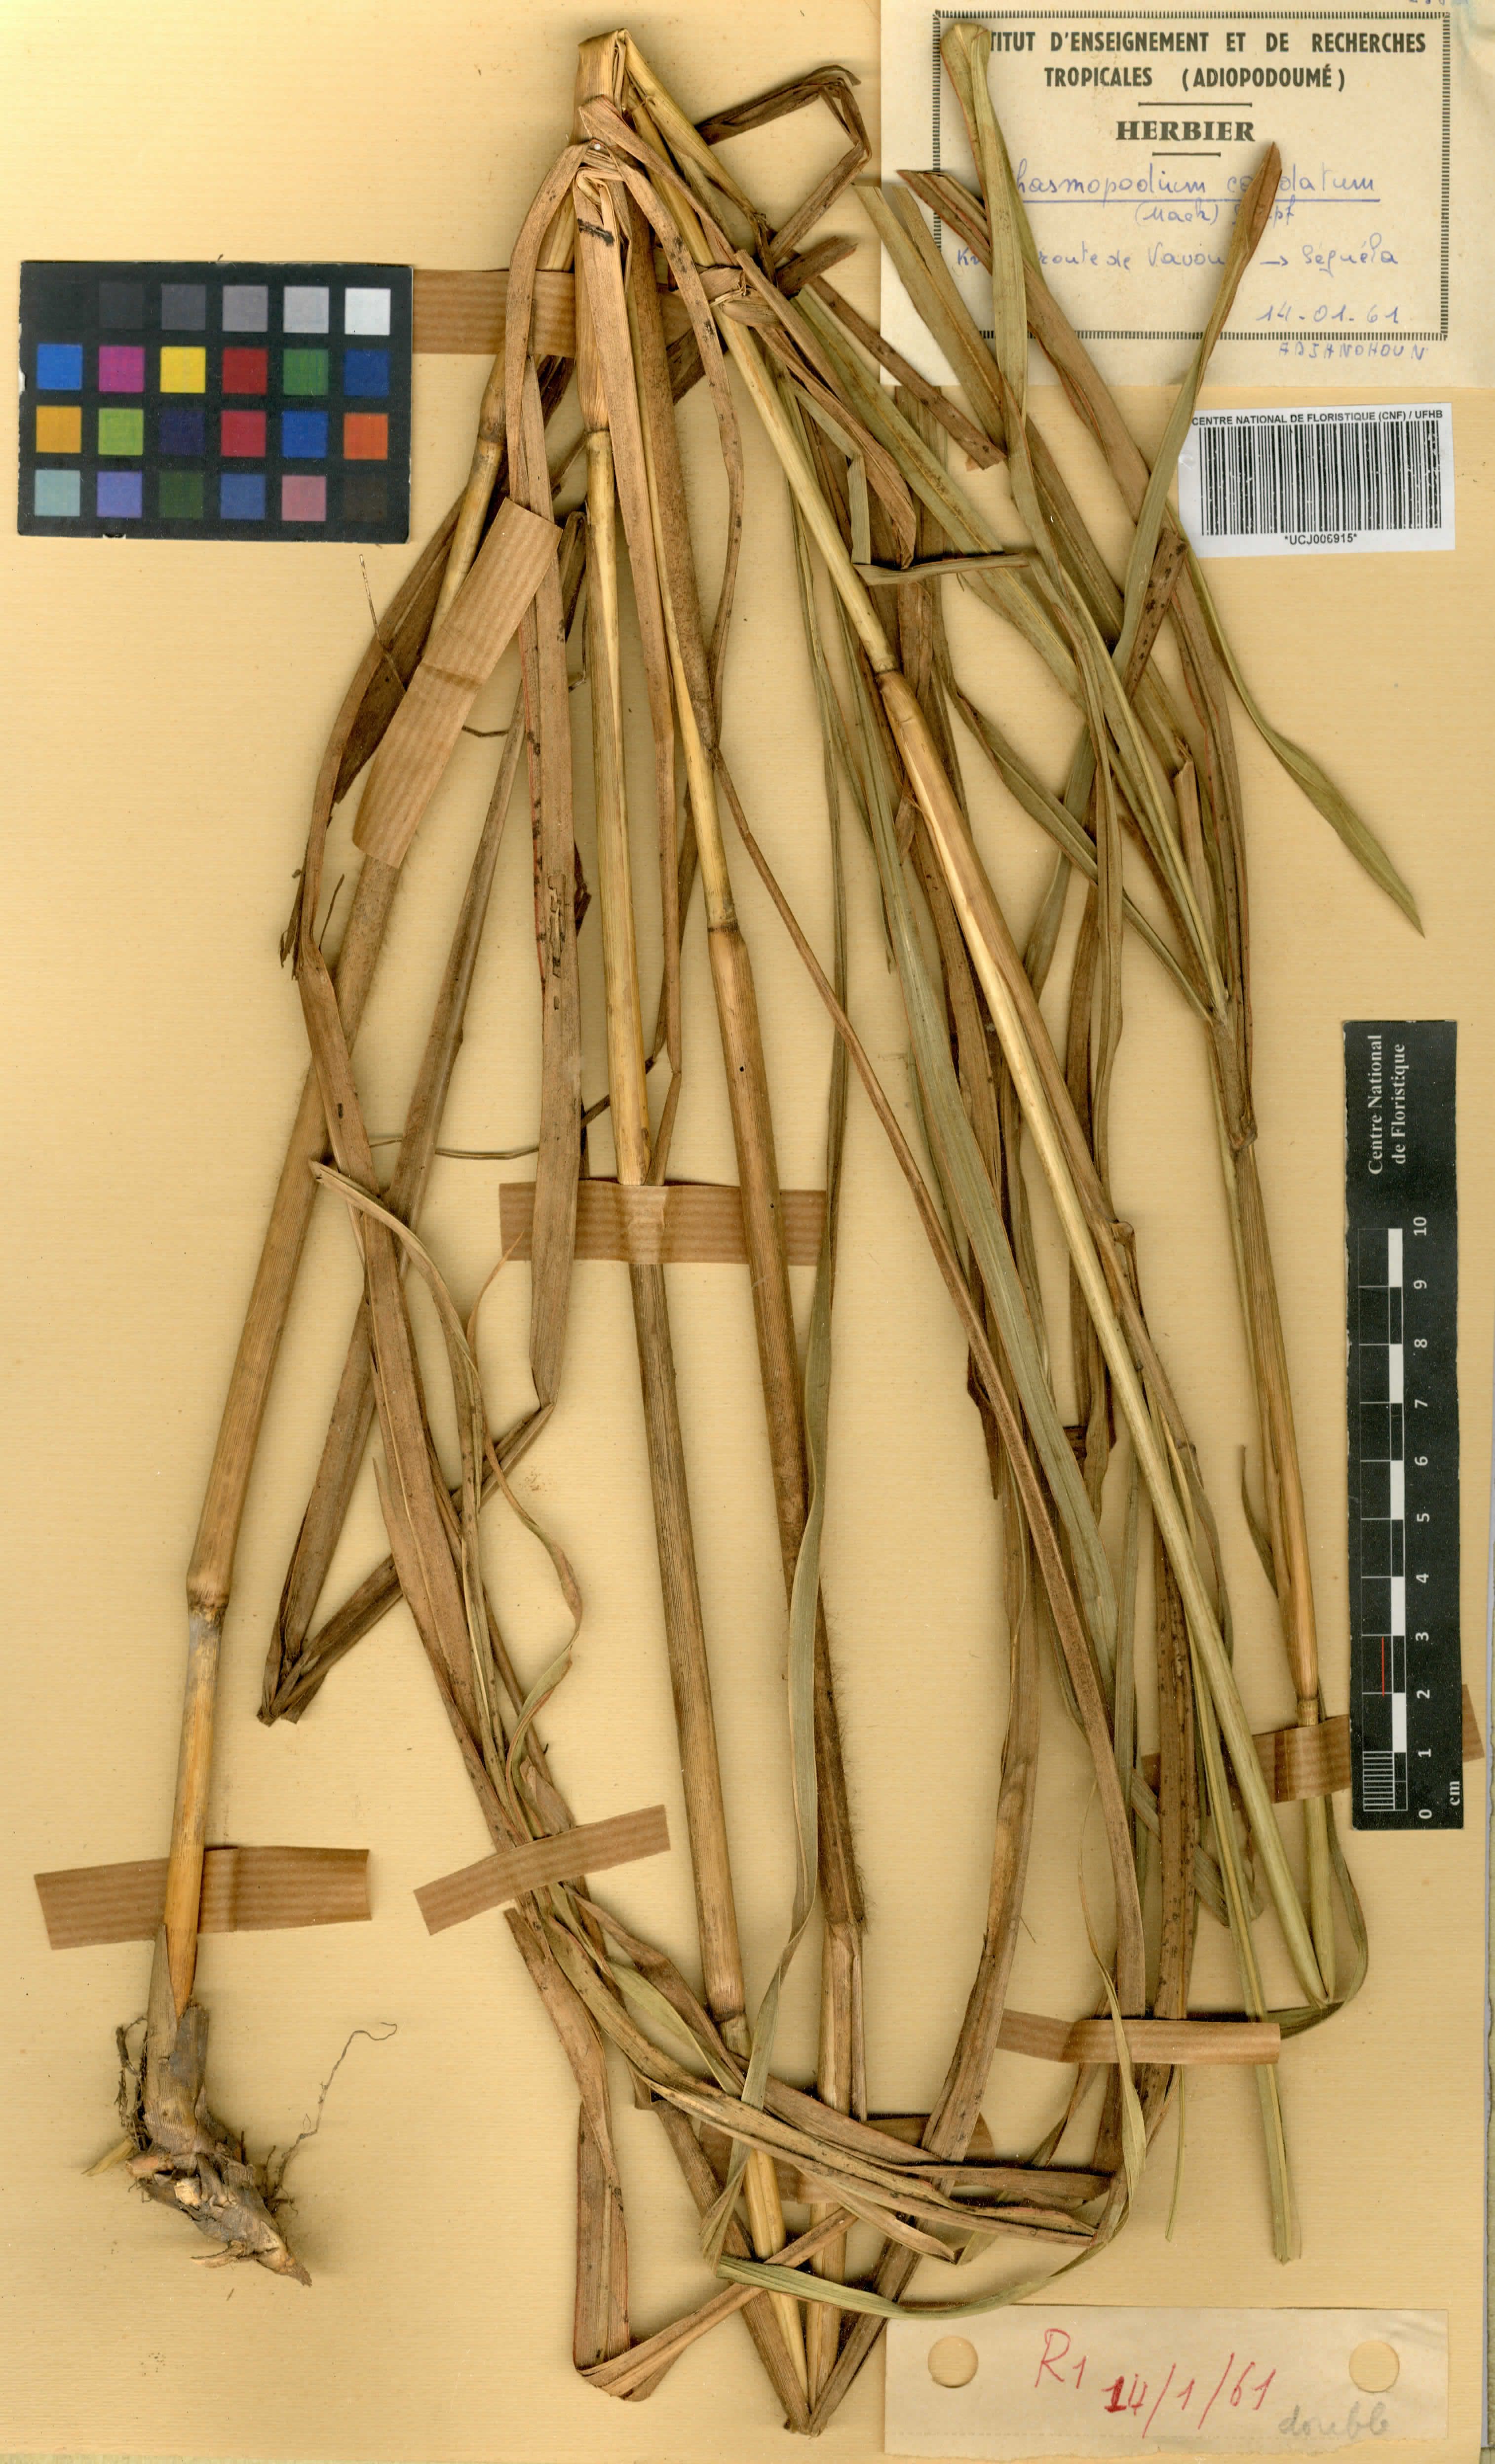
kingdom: Plantae
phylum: Tracheophyta
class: Liliopsida
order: Poales
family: Poaceae
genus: Chasmopodium
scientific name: Chasmopodium caudatum
